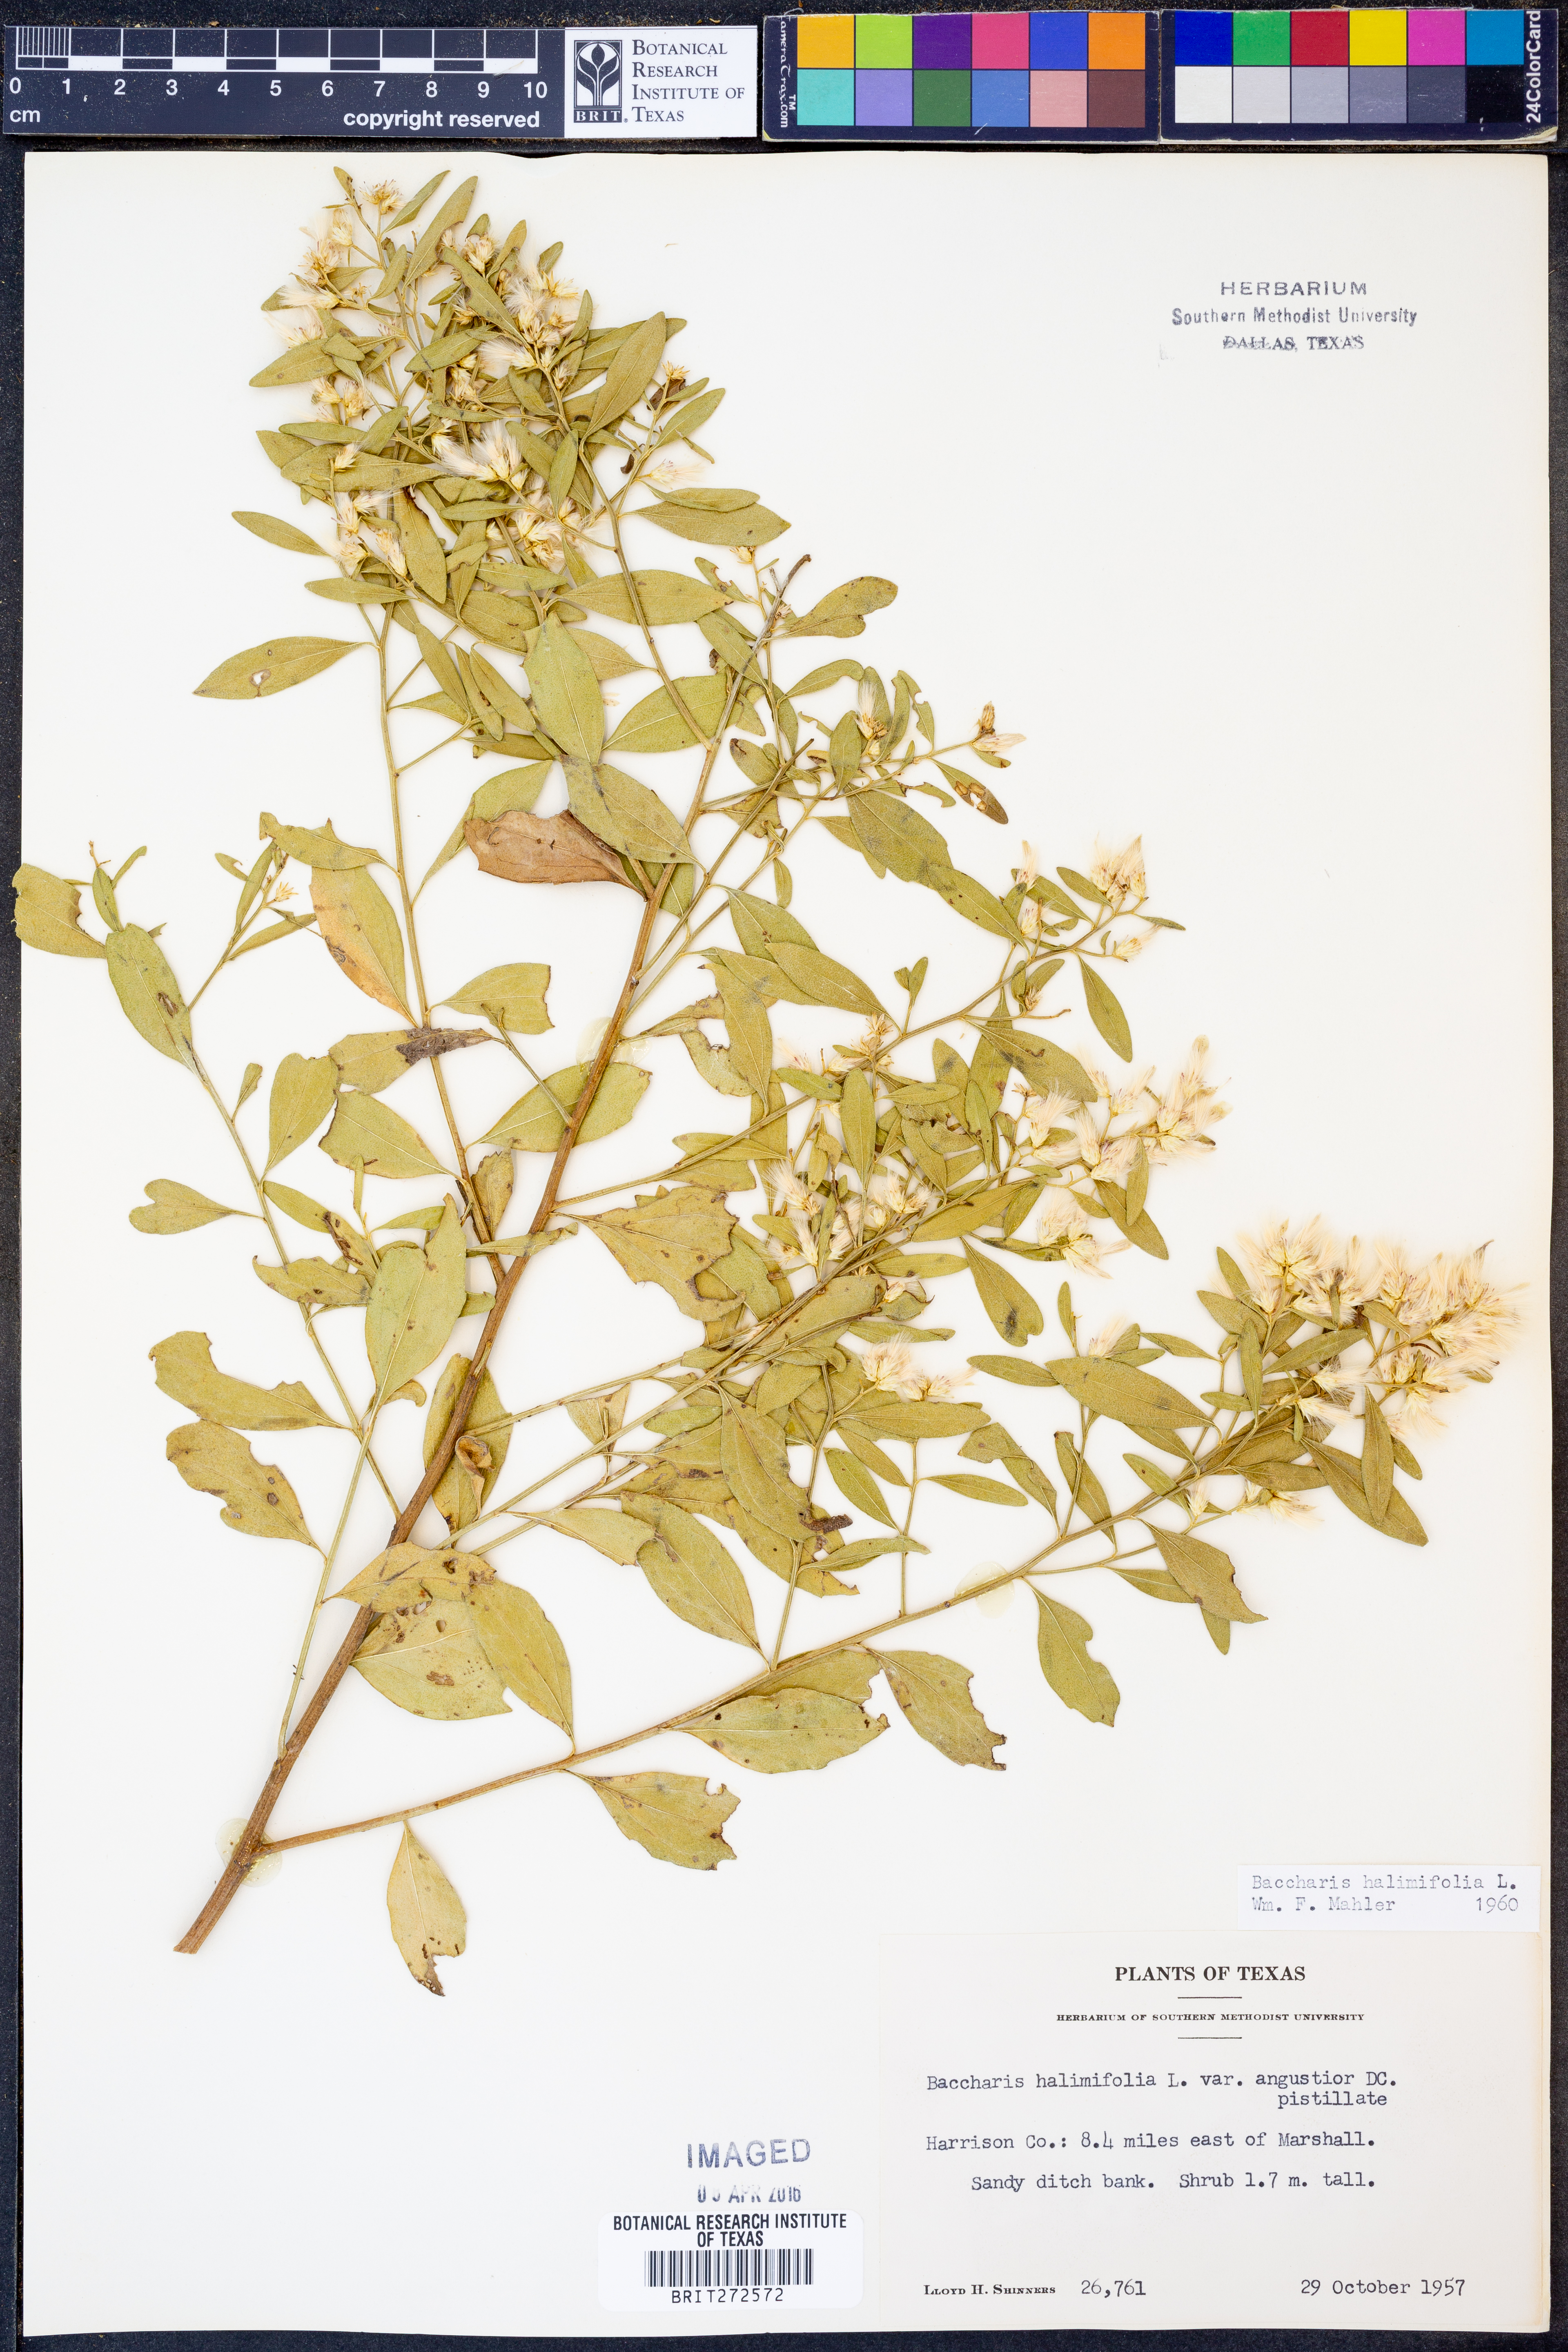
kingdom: Plantae
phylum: Tracheophyta
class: Magnoliopsida
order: Asterales
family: Asteraceae
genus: Nidorella
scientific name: Nidorella ivifolia
